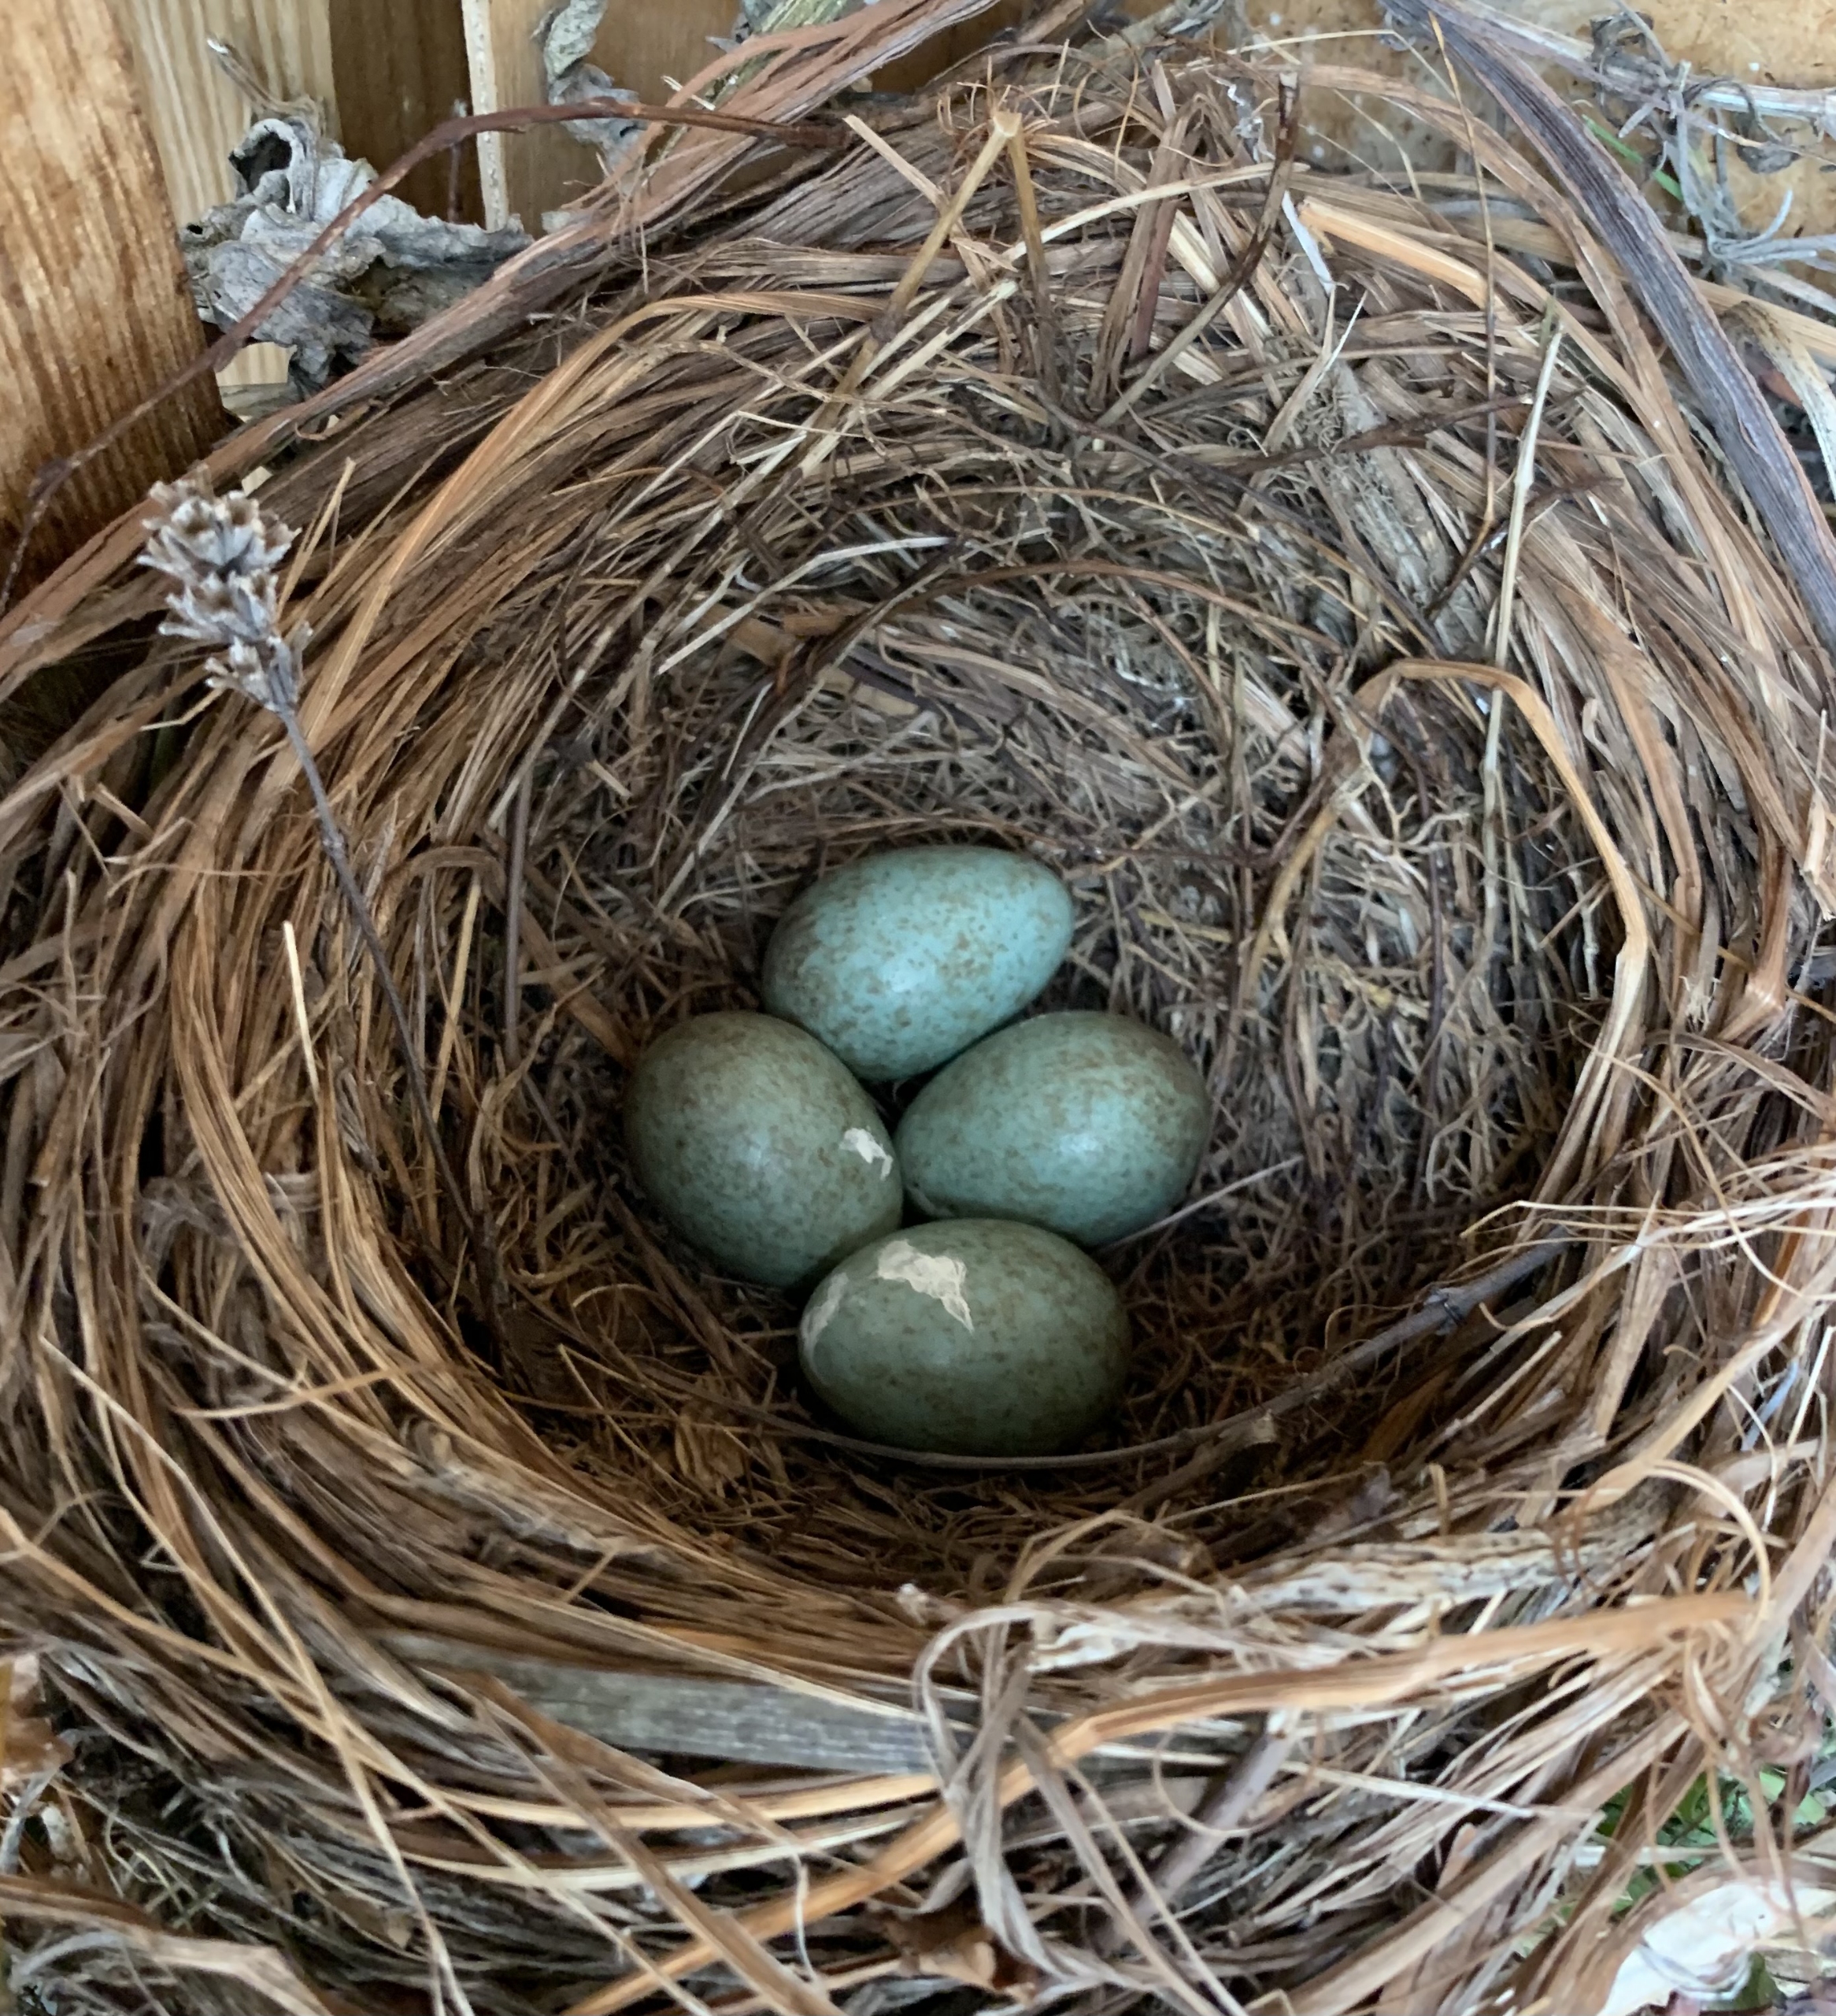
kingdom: Animalia
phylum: Chordata
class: Aves
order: Passeriformes
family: Turdidae
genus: Turdus
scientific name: Turdus merula
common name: Solsort
